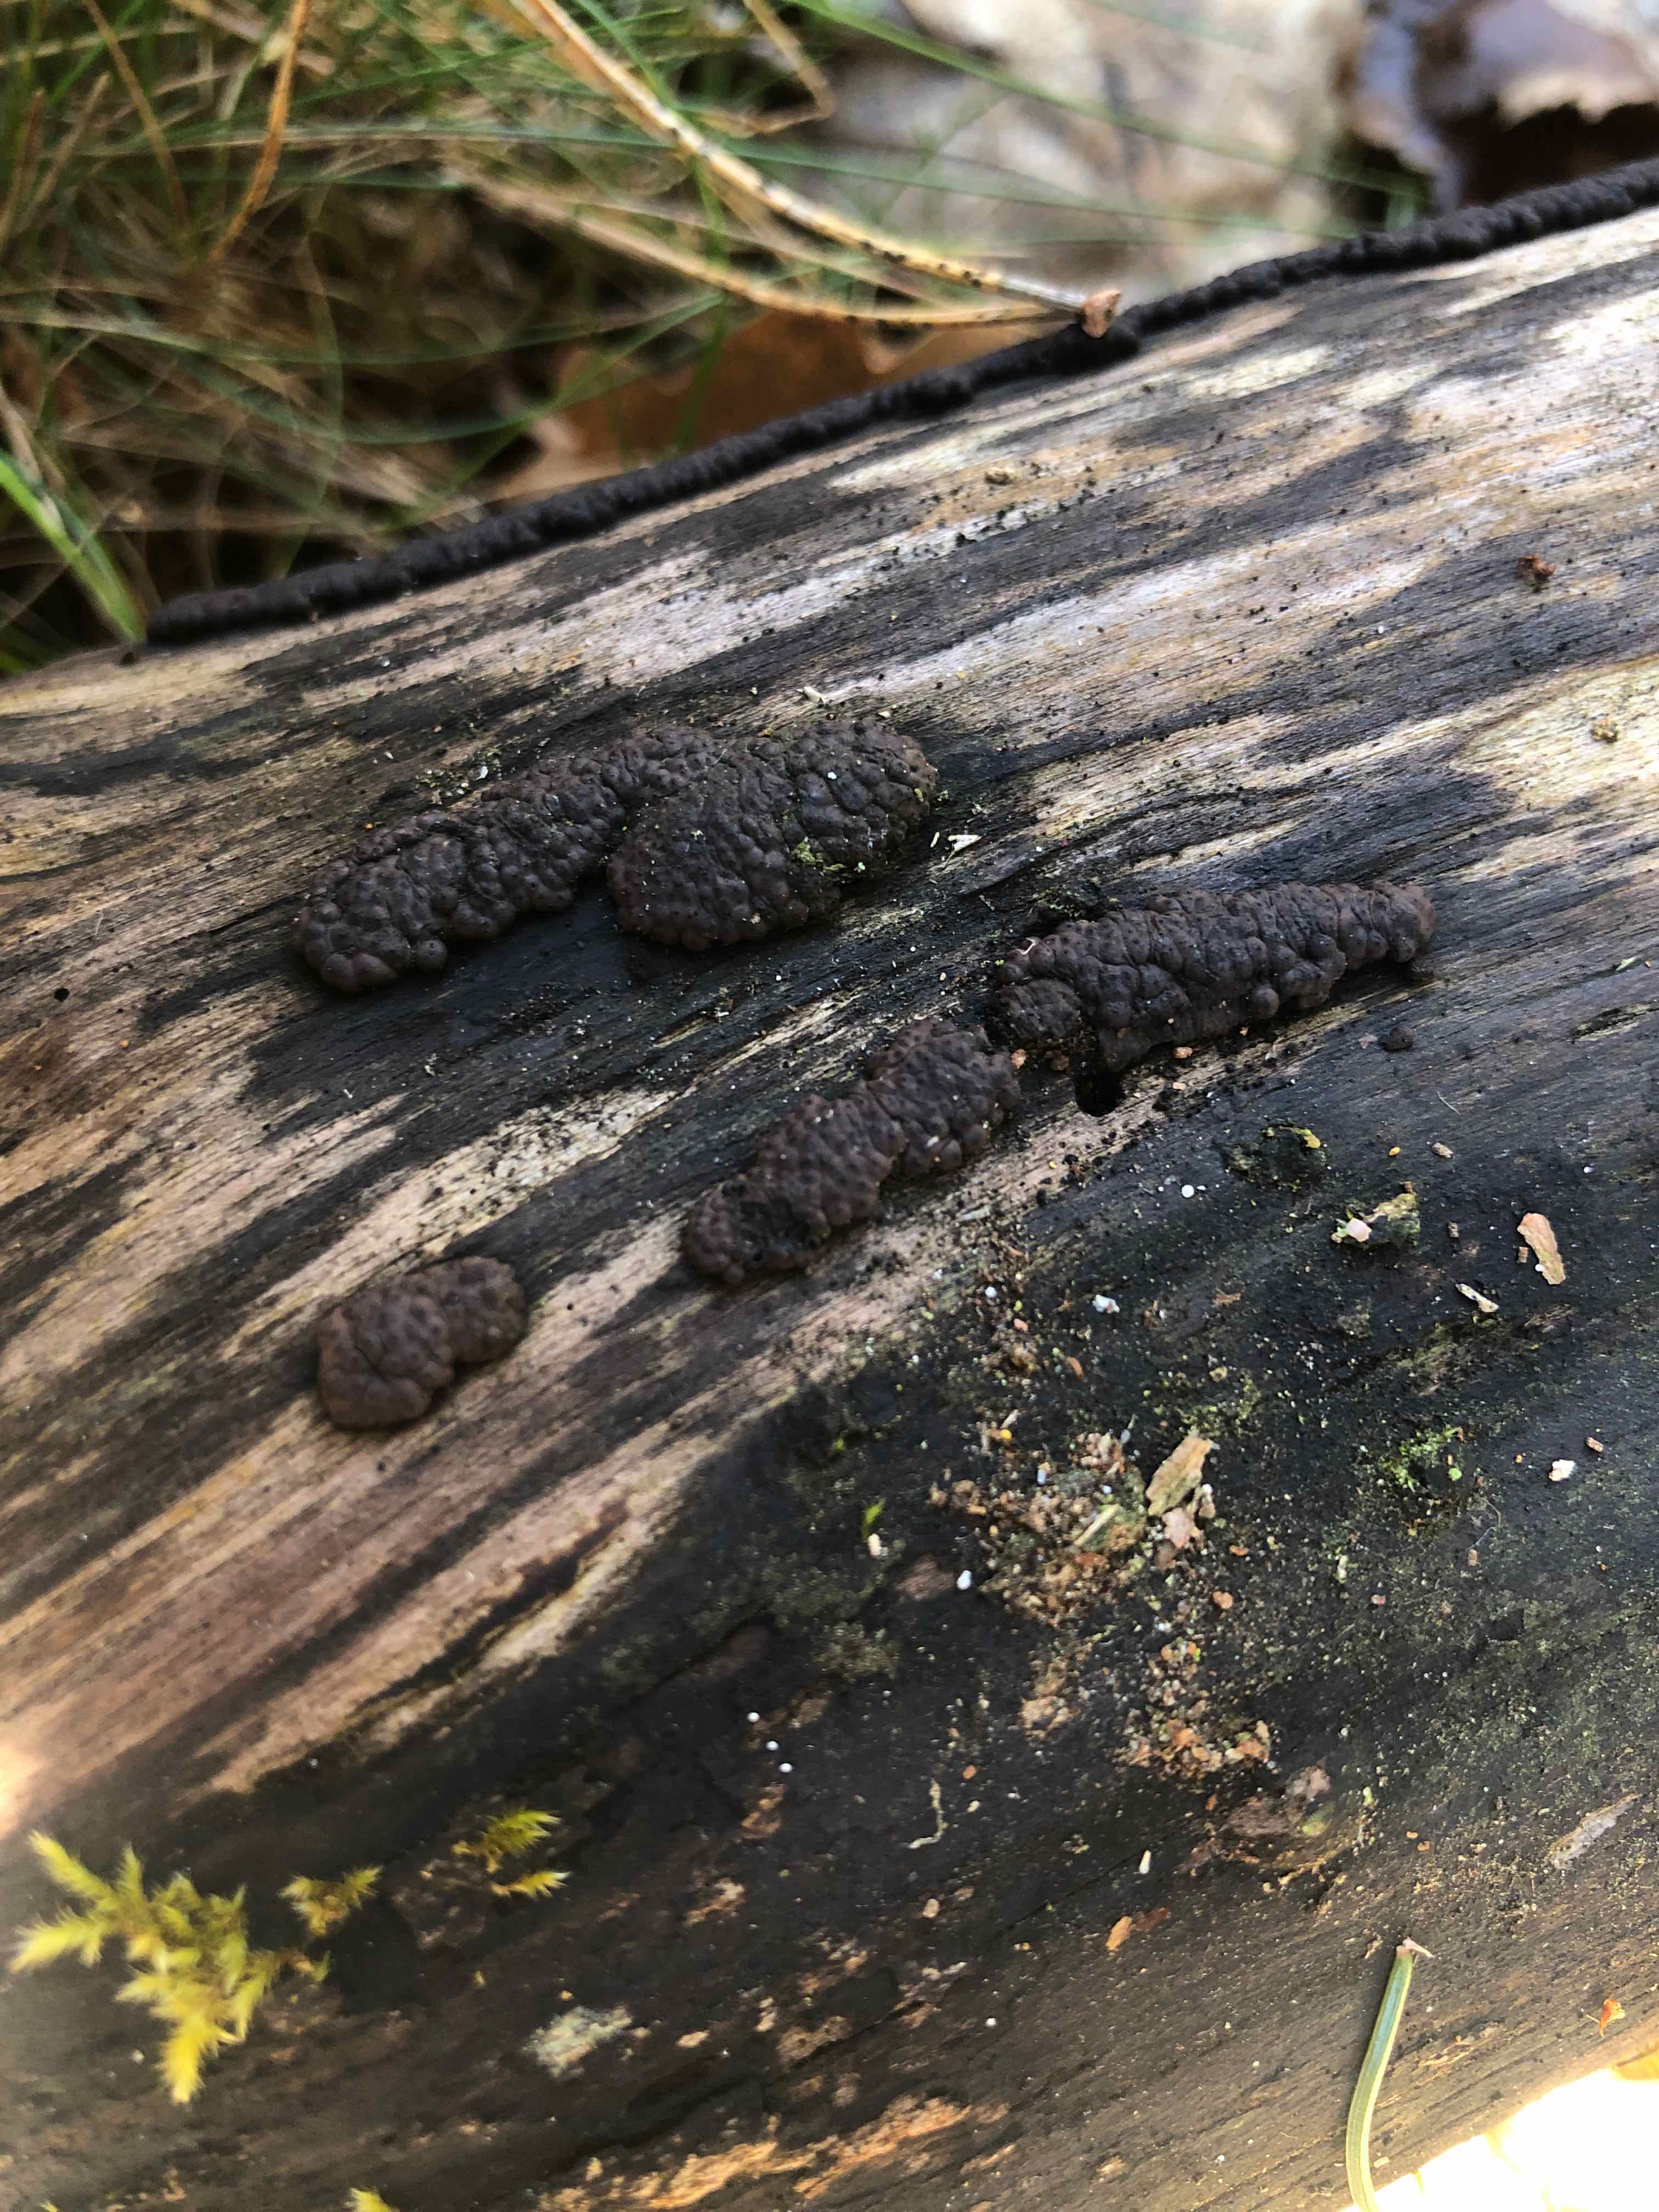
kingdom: Fungi
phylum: Ascomycota
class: Sordariomycetes
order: Xylariales
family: Hypoxylaceae
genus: Jackrogersella
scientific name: Jackrogersella multiformis
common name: foranderlig kulbær
